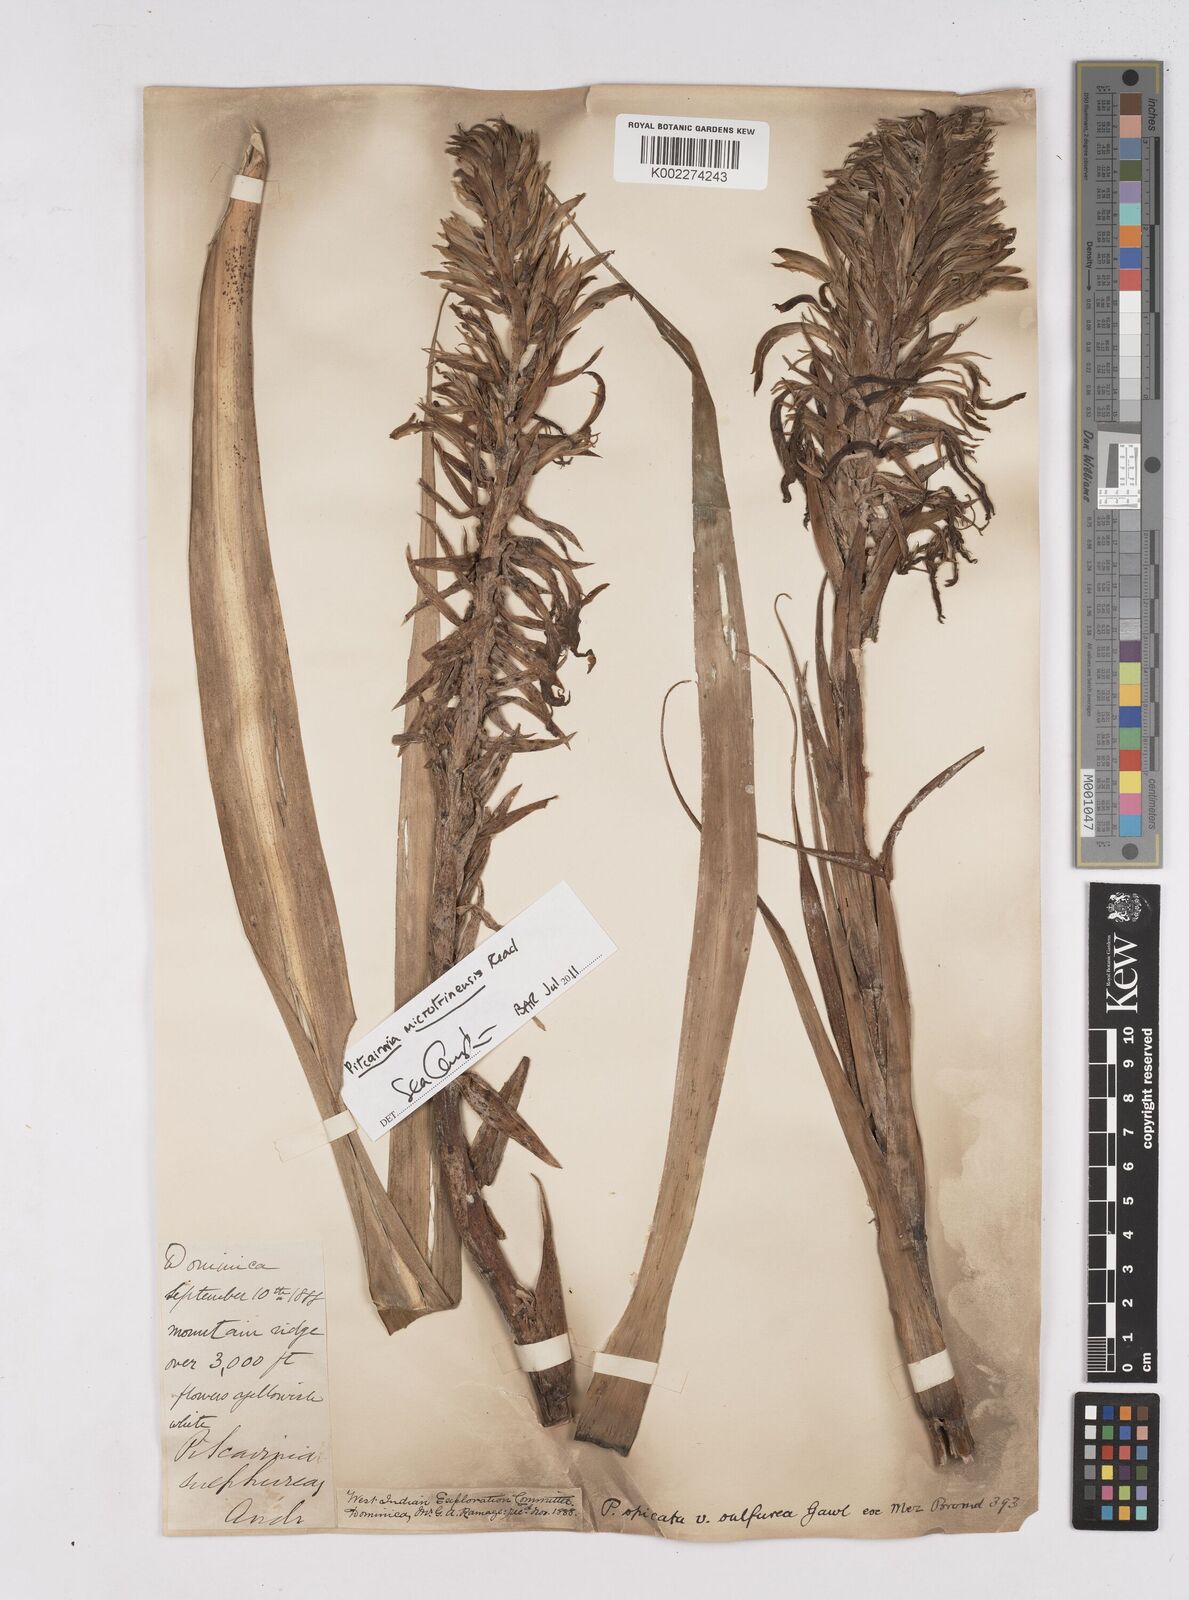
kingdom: Plantae
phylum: Tracheophyta
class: Liliopsida
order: Poales
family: Bromeliaceae
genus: Pitcairnia
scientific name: Pitcairnia spicata
